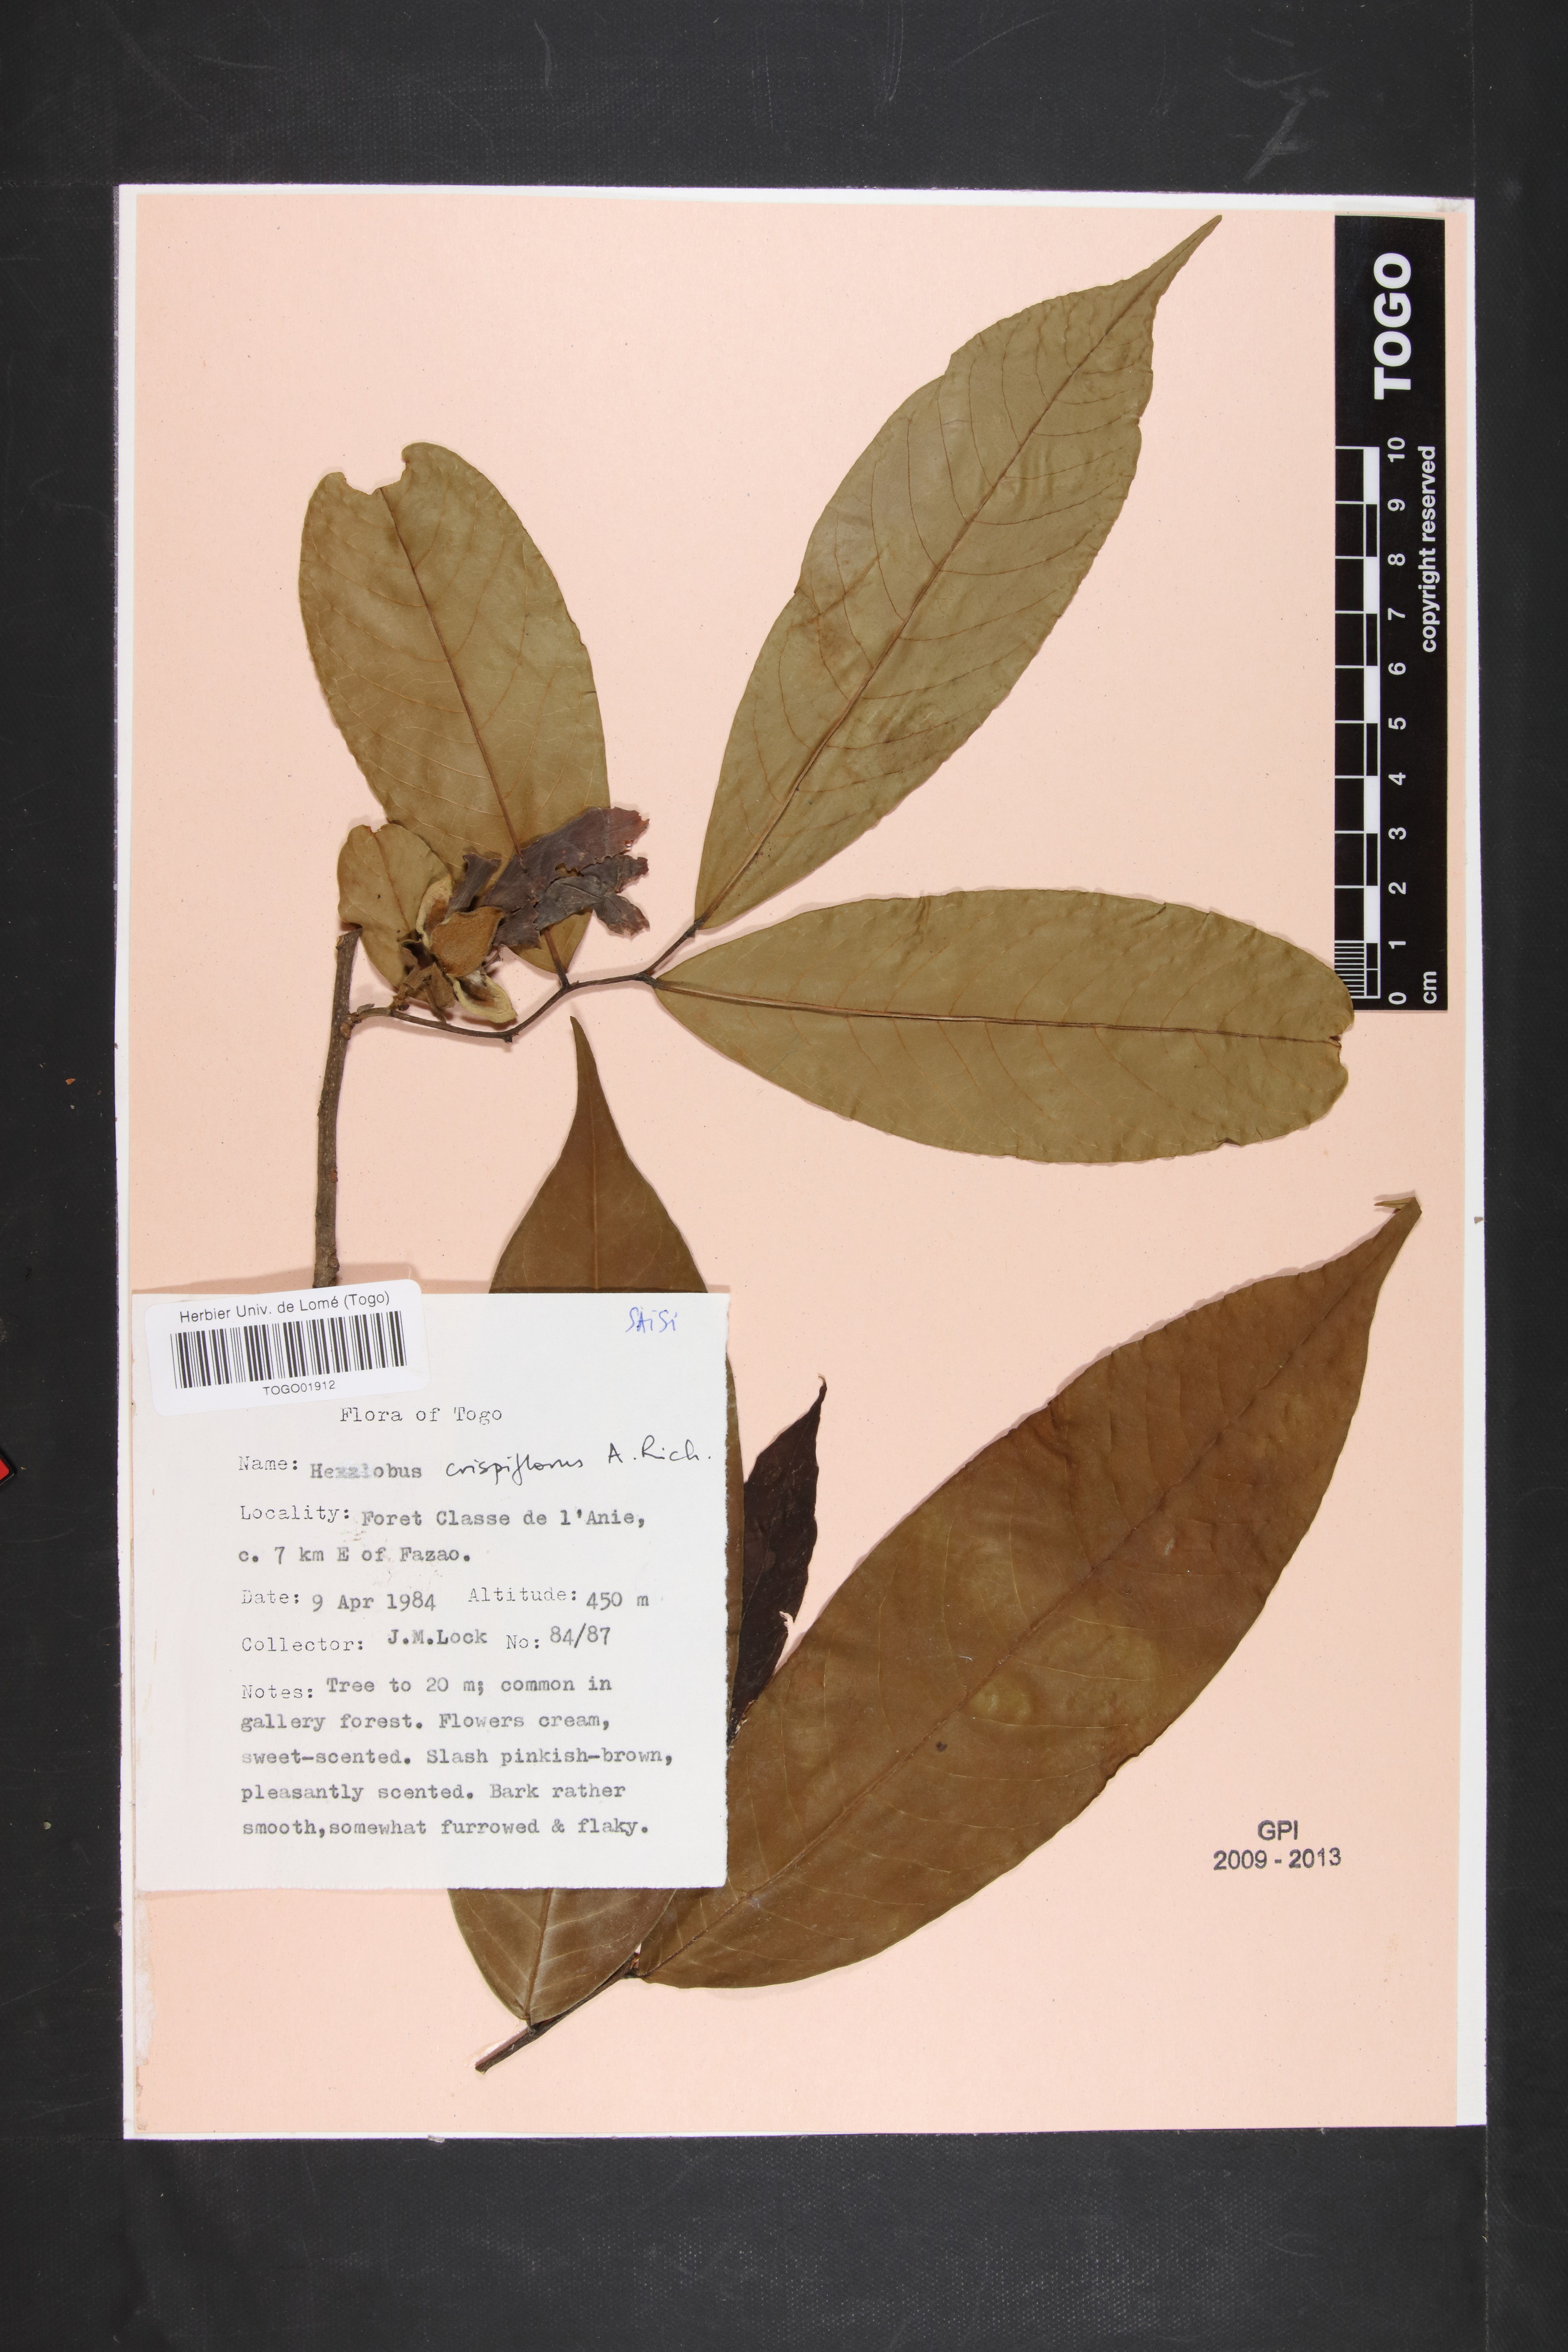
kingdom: Plantae
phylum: Tracheophyta
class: Magnoliopsida
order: Magnoliales
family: Annonaceae
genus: Hexalobus
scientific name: Hexalobus crispiflorus
